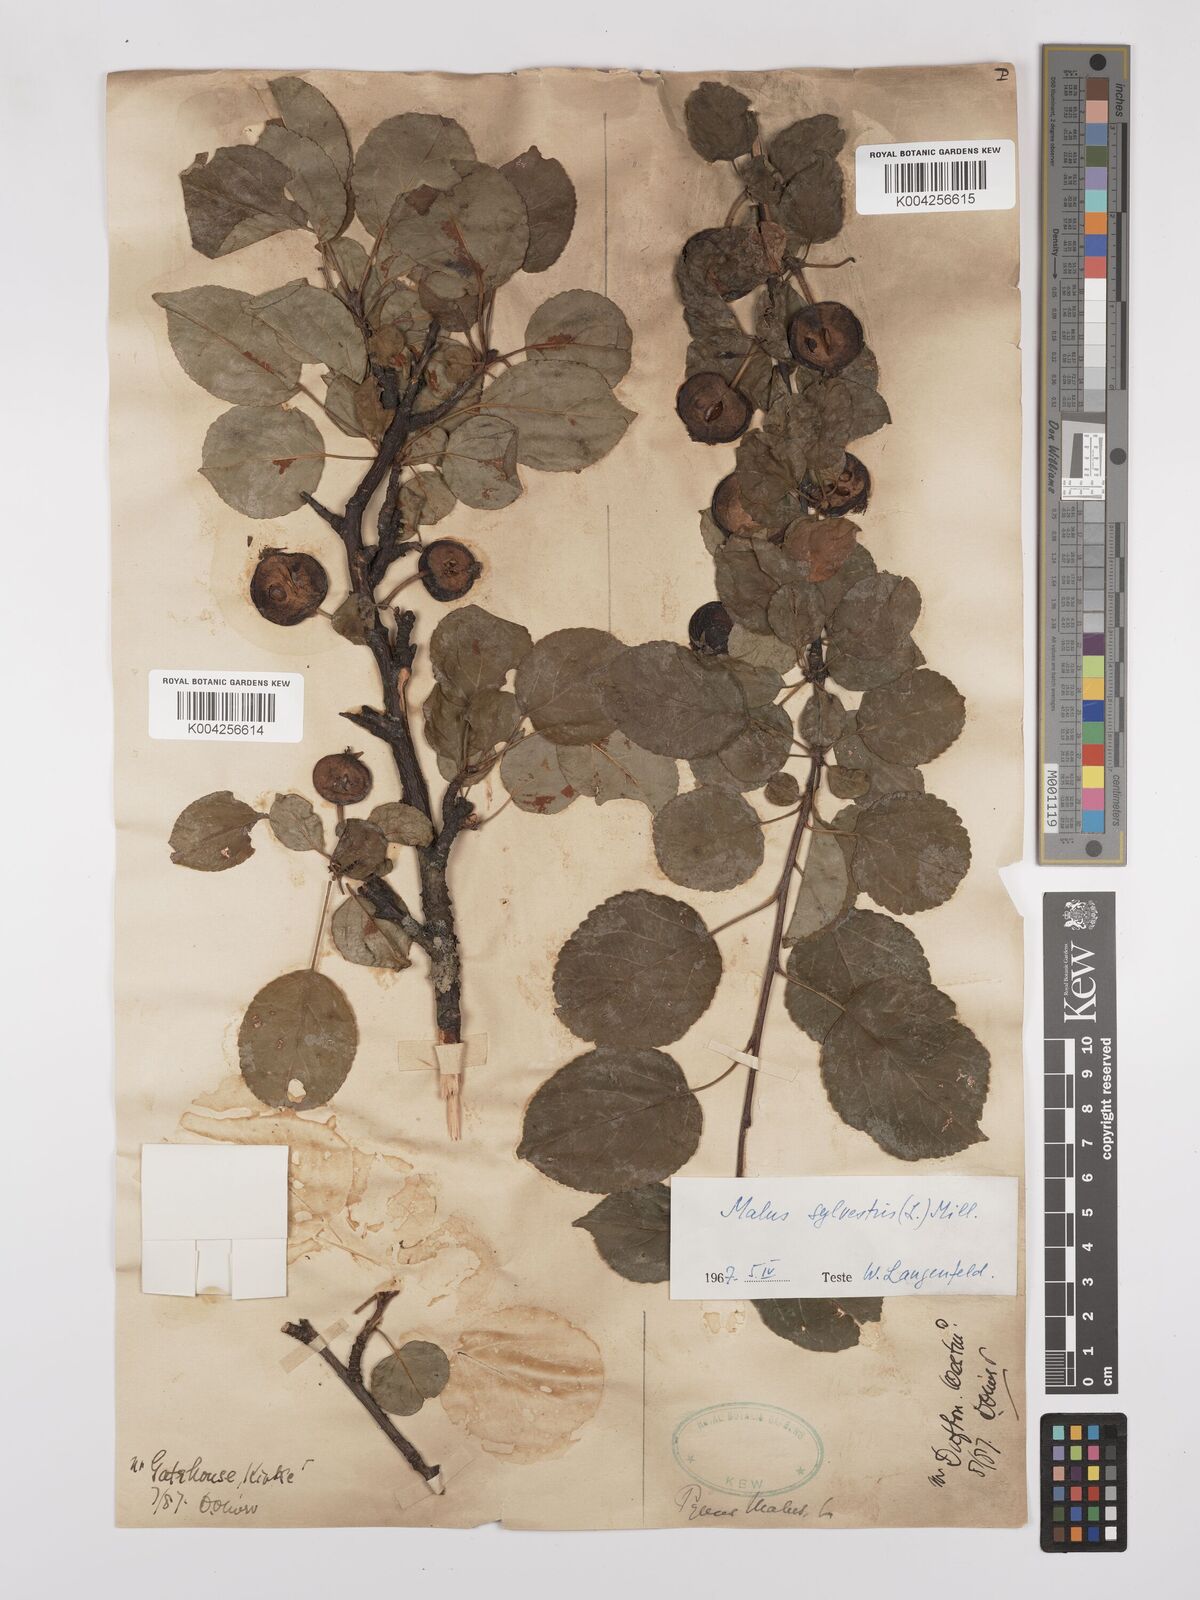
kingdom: Plantae
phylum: Tracheophyta
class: Magnoliopsida
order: Rosales
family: Rosaceae
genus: Malus
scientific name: Malus sylvestris
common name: Crab apple
